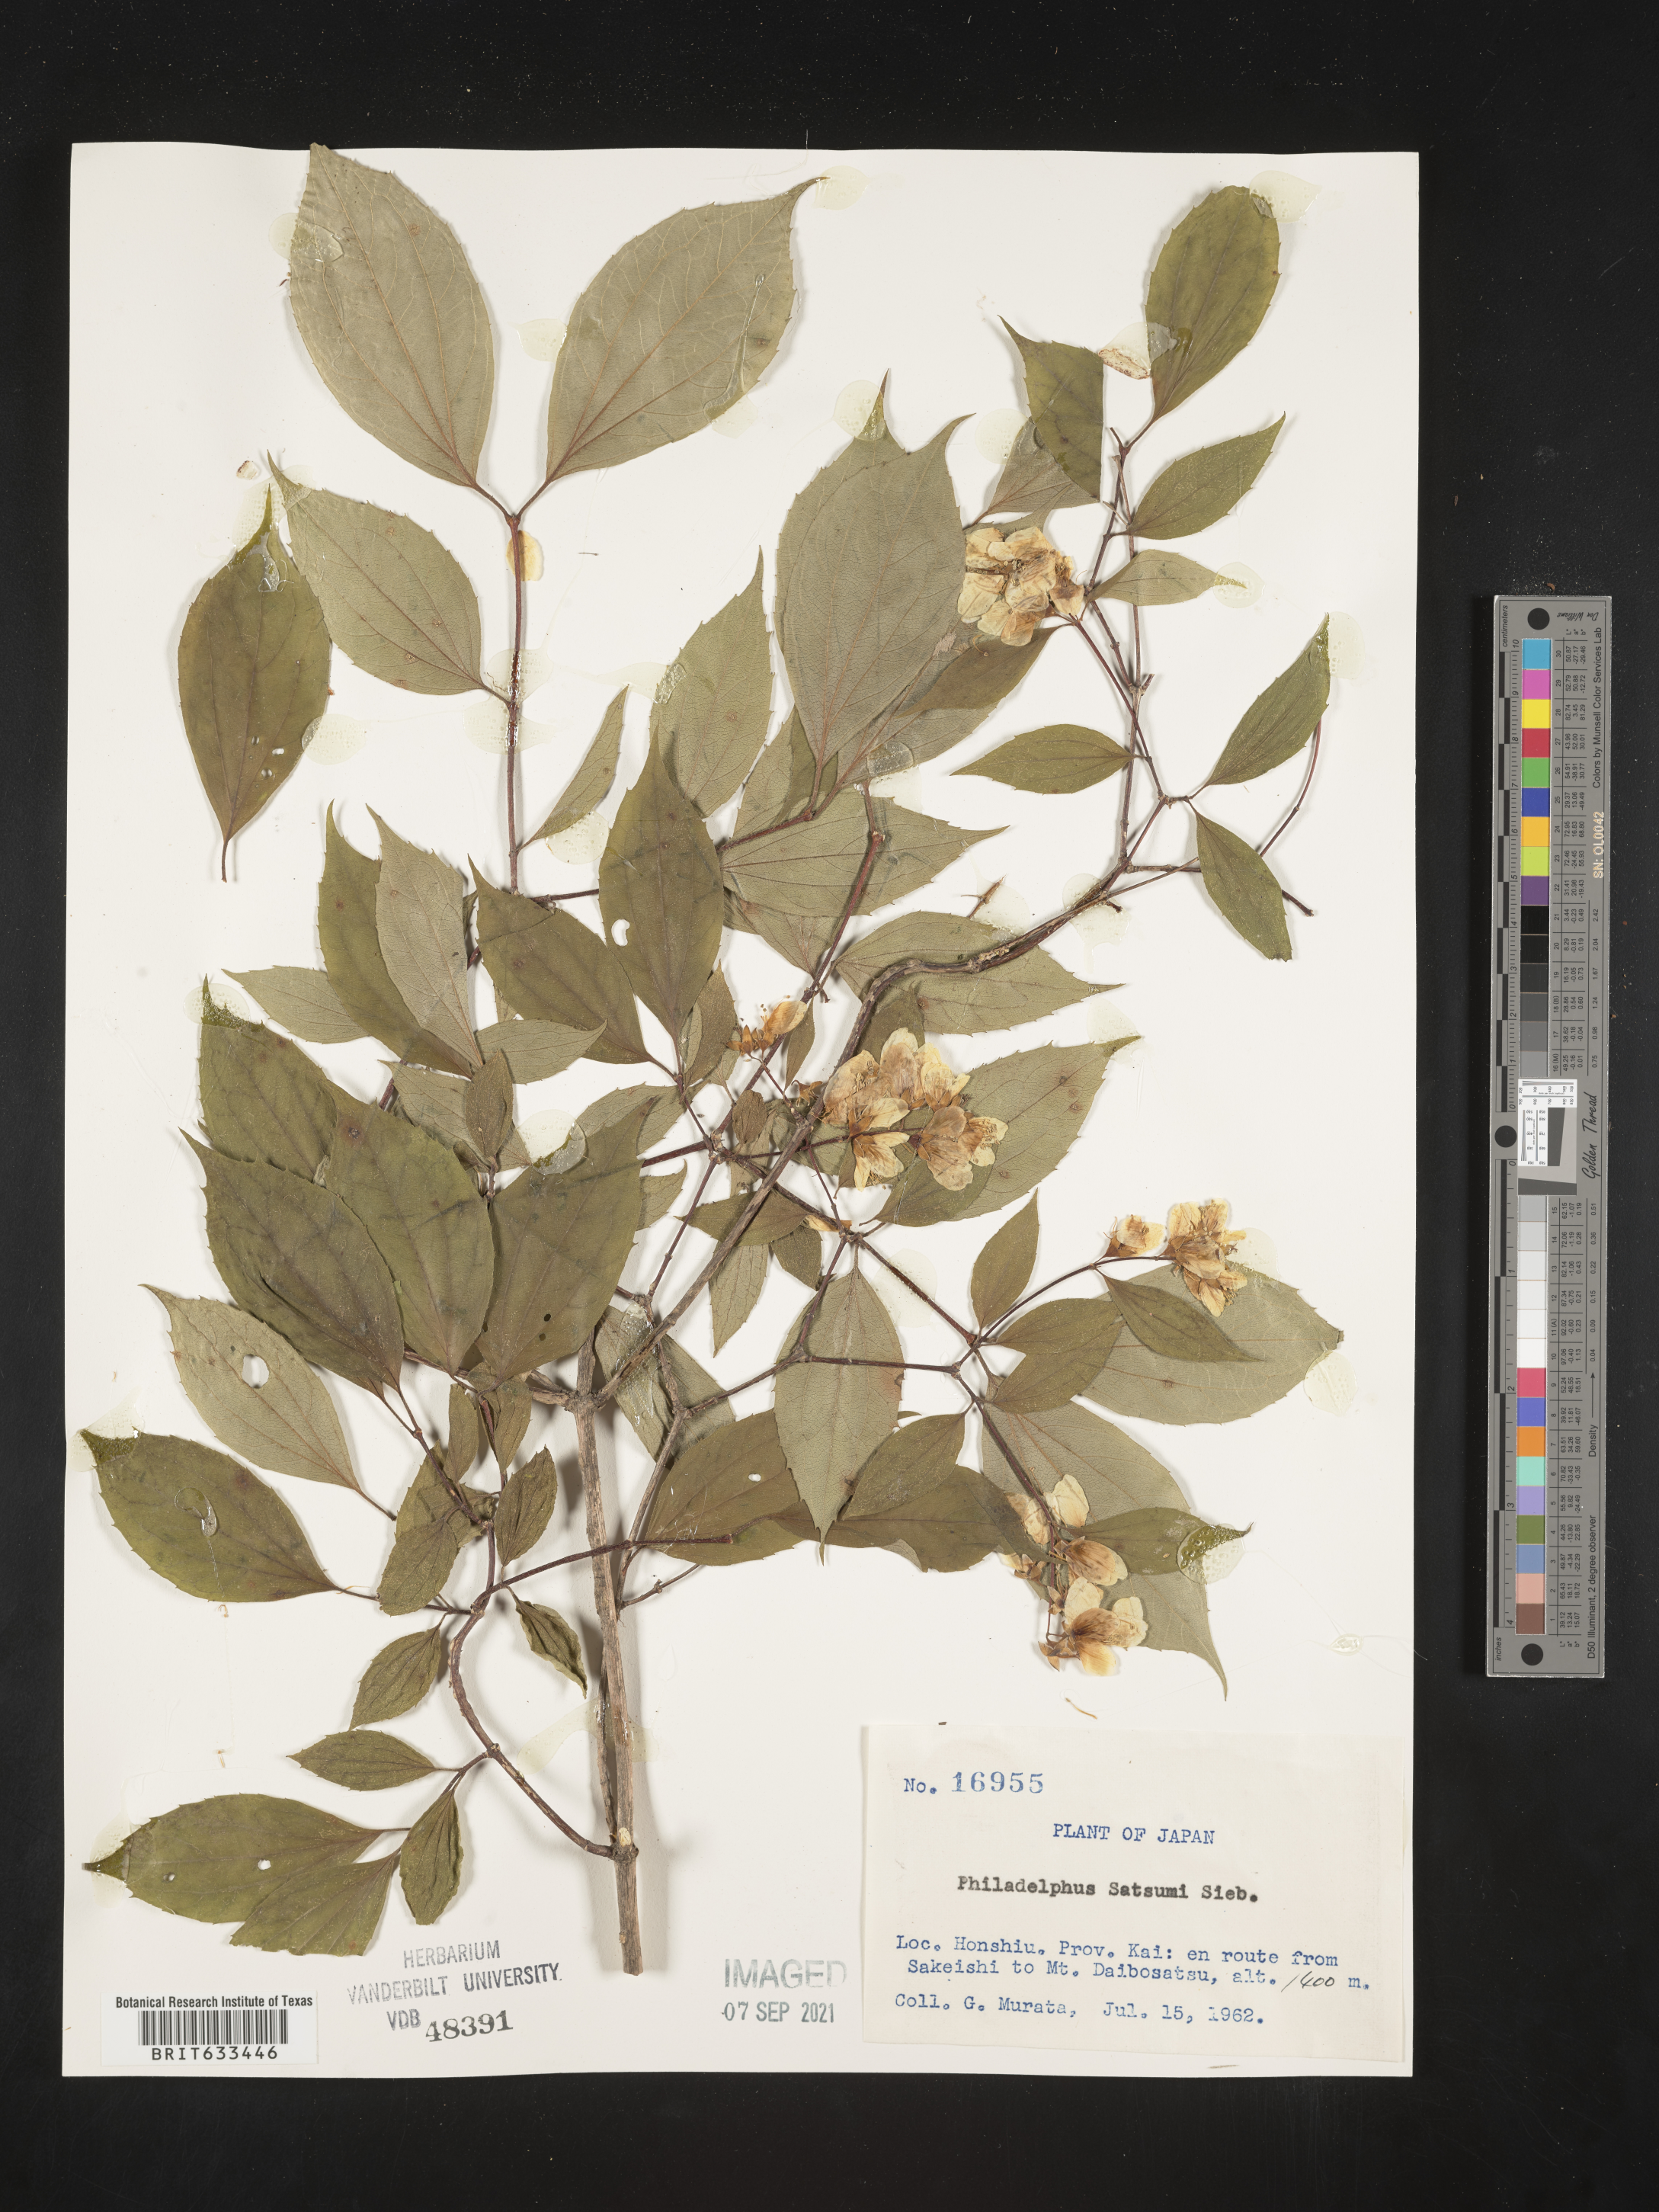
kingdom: Plantae
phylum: Tracheophyta
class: Magnoliopsida
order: Cornales
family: Hydrangeaceae
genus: Philadelphus
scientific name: Philadelphus
